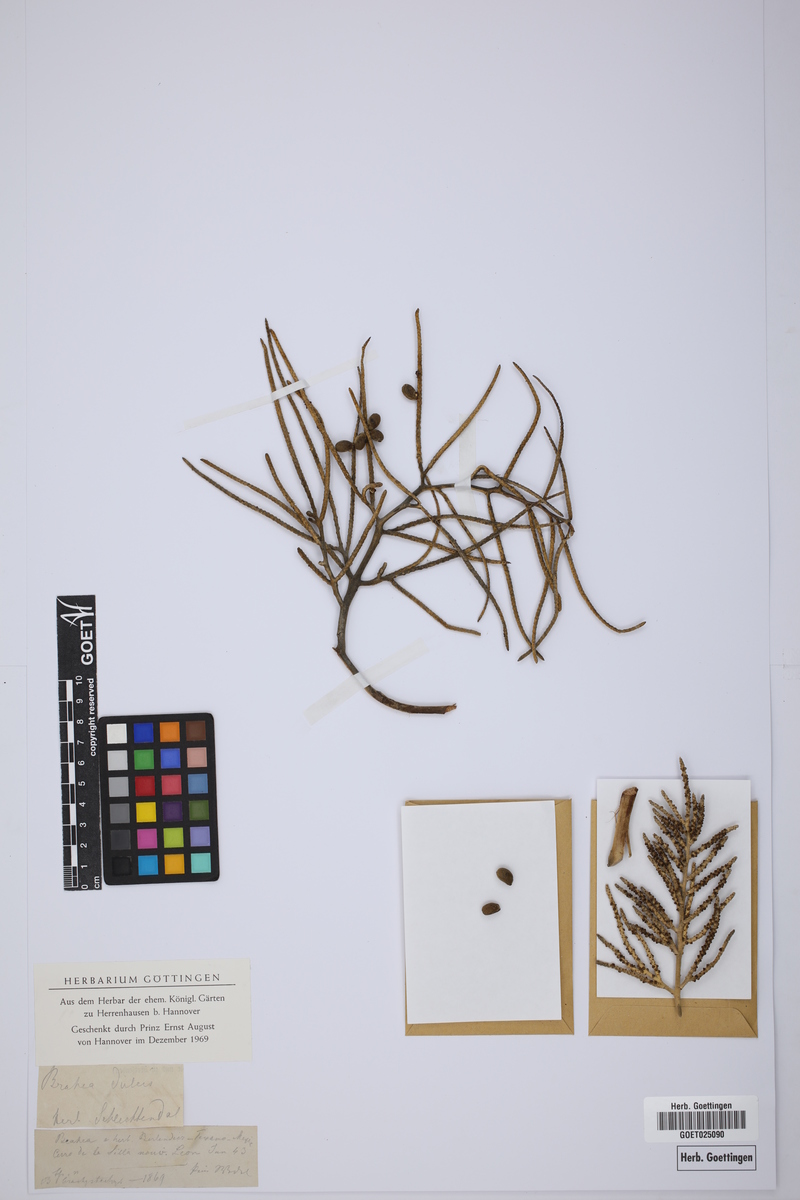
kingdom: Plantae
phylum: Tracheophyta
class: Liliopsida
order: Arecales
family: Arecaceae
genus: Brahea
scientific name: Brahea dulcis
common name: Apak palm
